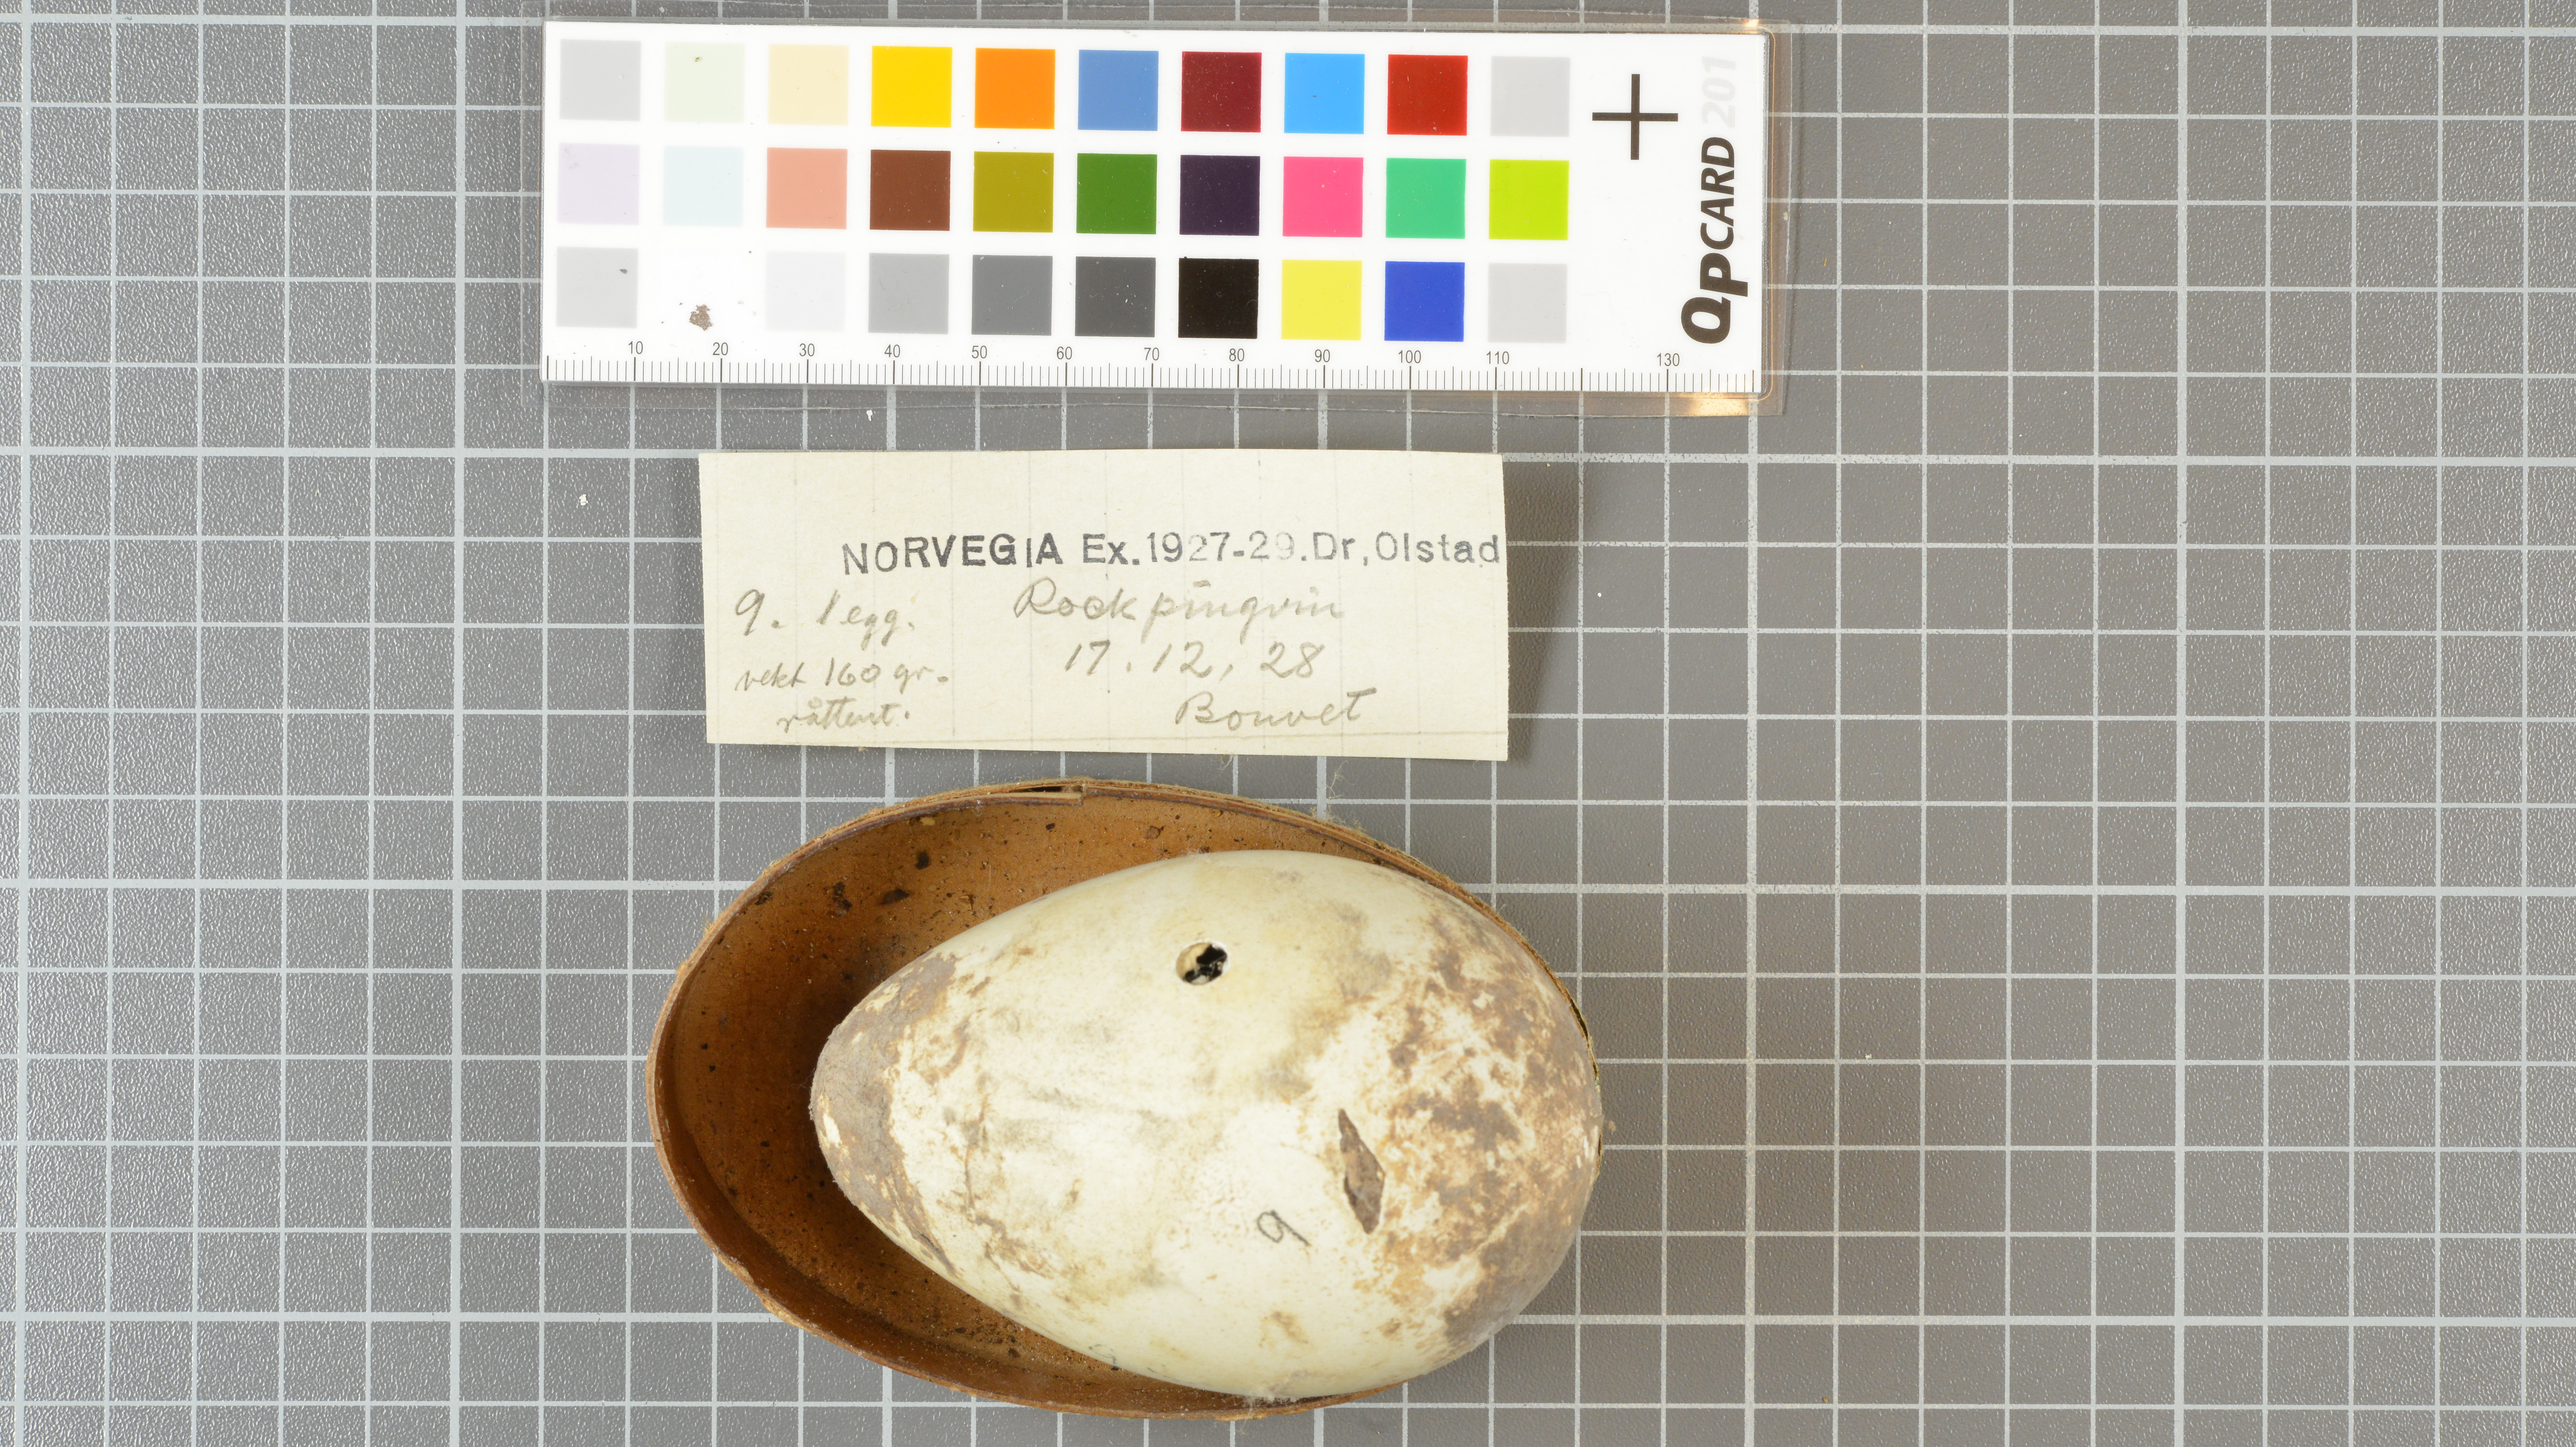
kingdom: Animalia
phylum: Chordata
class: Aves
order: Sphenisciformes
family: Spheniscidae
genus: Eudyptes
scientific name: Eudyptes chrysolophus
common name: Macaroni penguin
